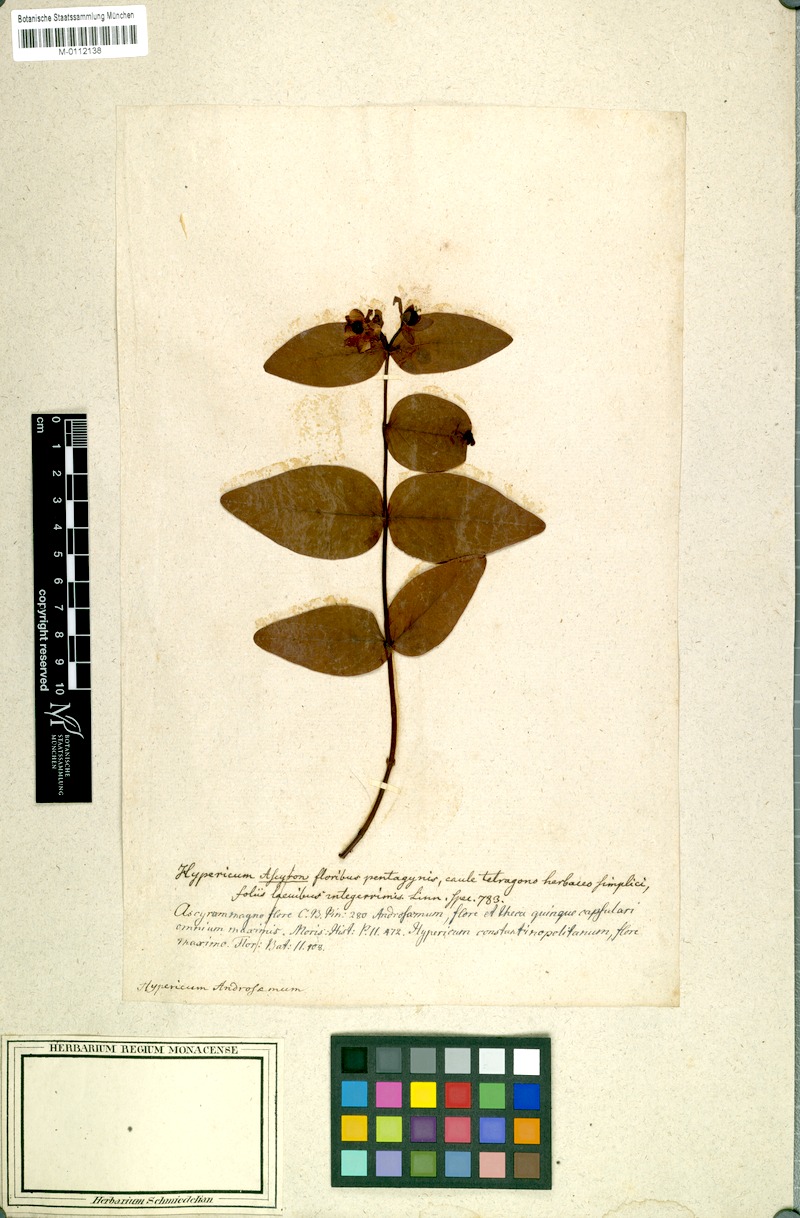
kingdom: Plantae
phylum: Tracheophyta
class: Magnoliopsida
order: Malpighiales
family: Hypericaceae
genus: Hypericum
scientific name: Hypericum androsaemum
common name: Sweet-amber
